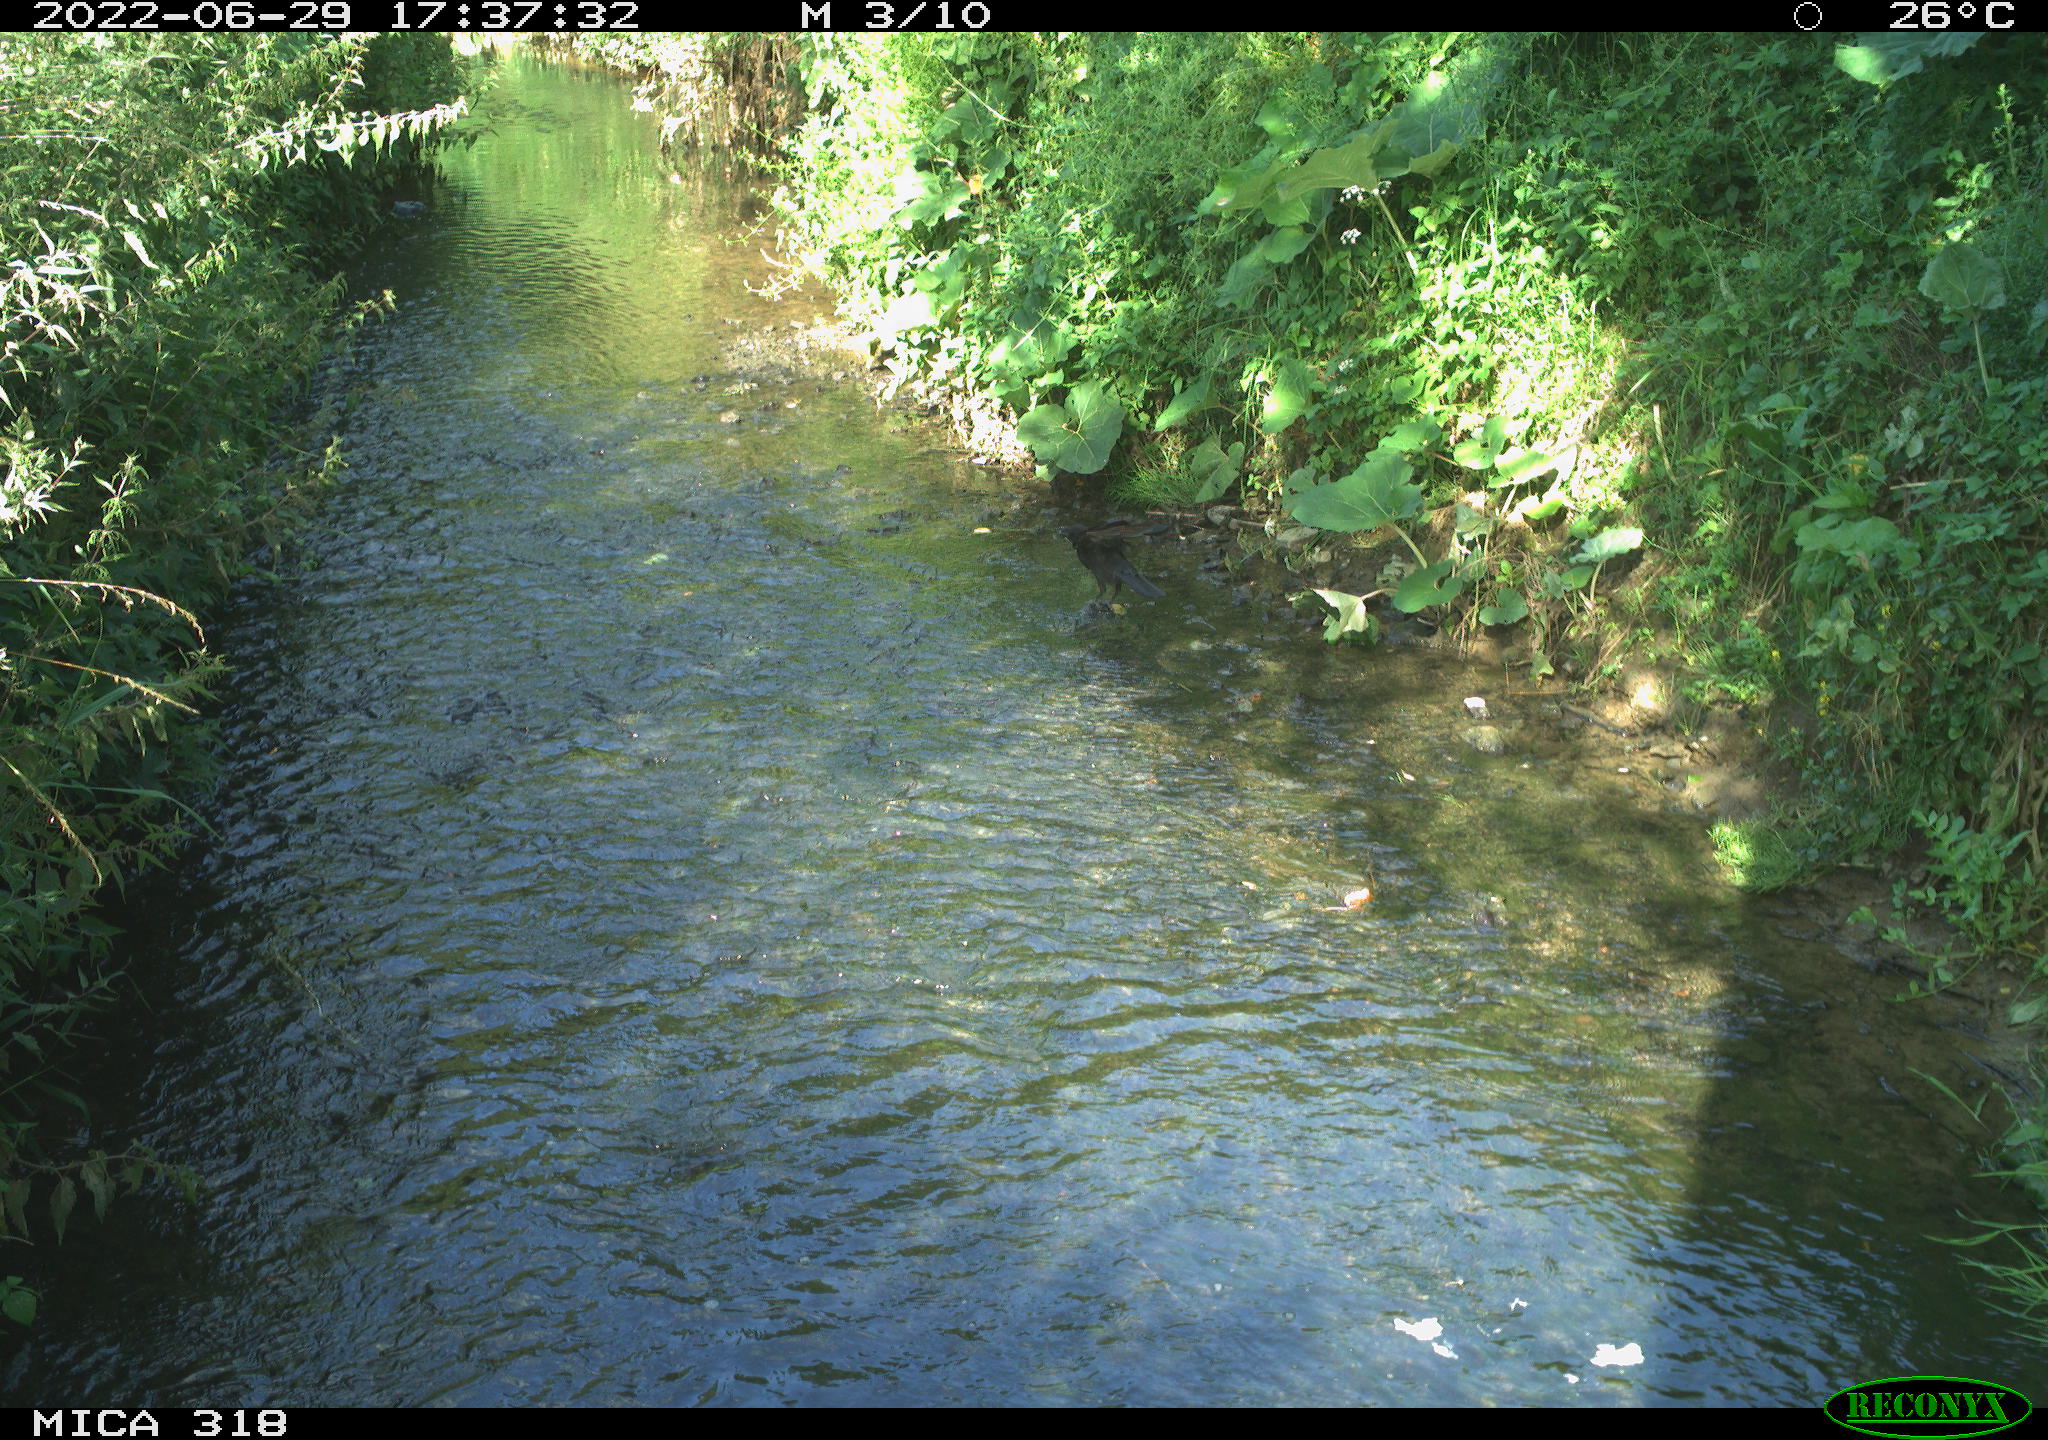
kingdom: Animalia
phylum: Chordata
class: Aves
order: Passeriformes
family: Corvidae
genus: Corvus
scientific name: Corvus corone
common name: Carrion crow
